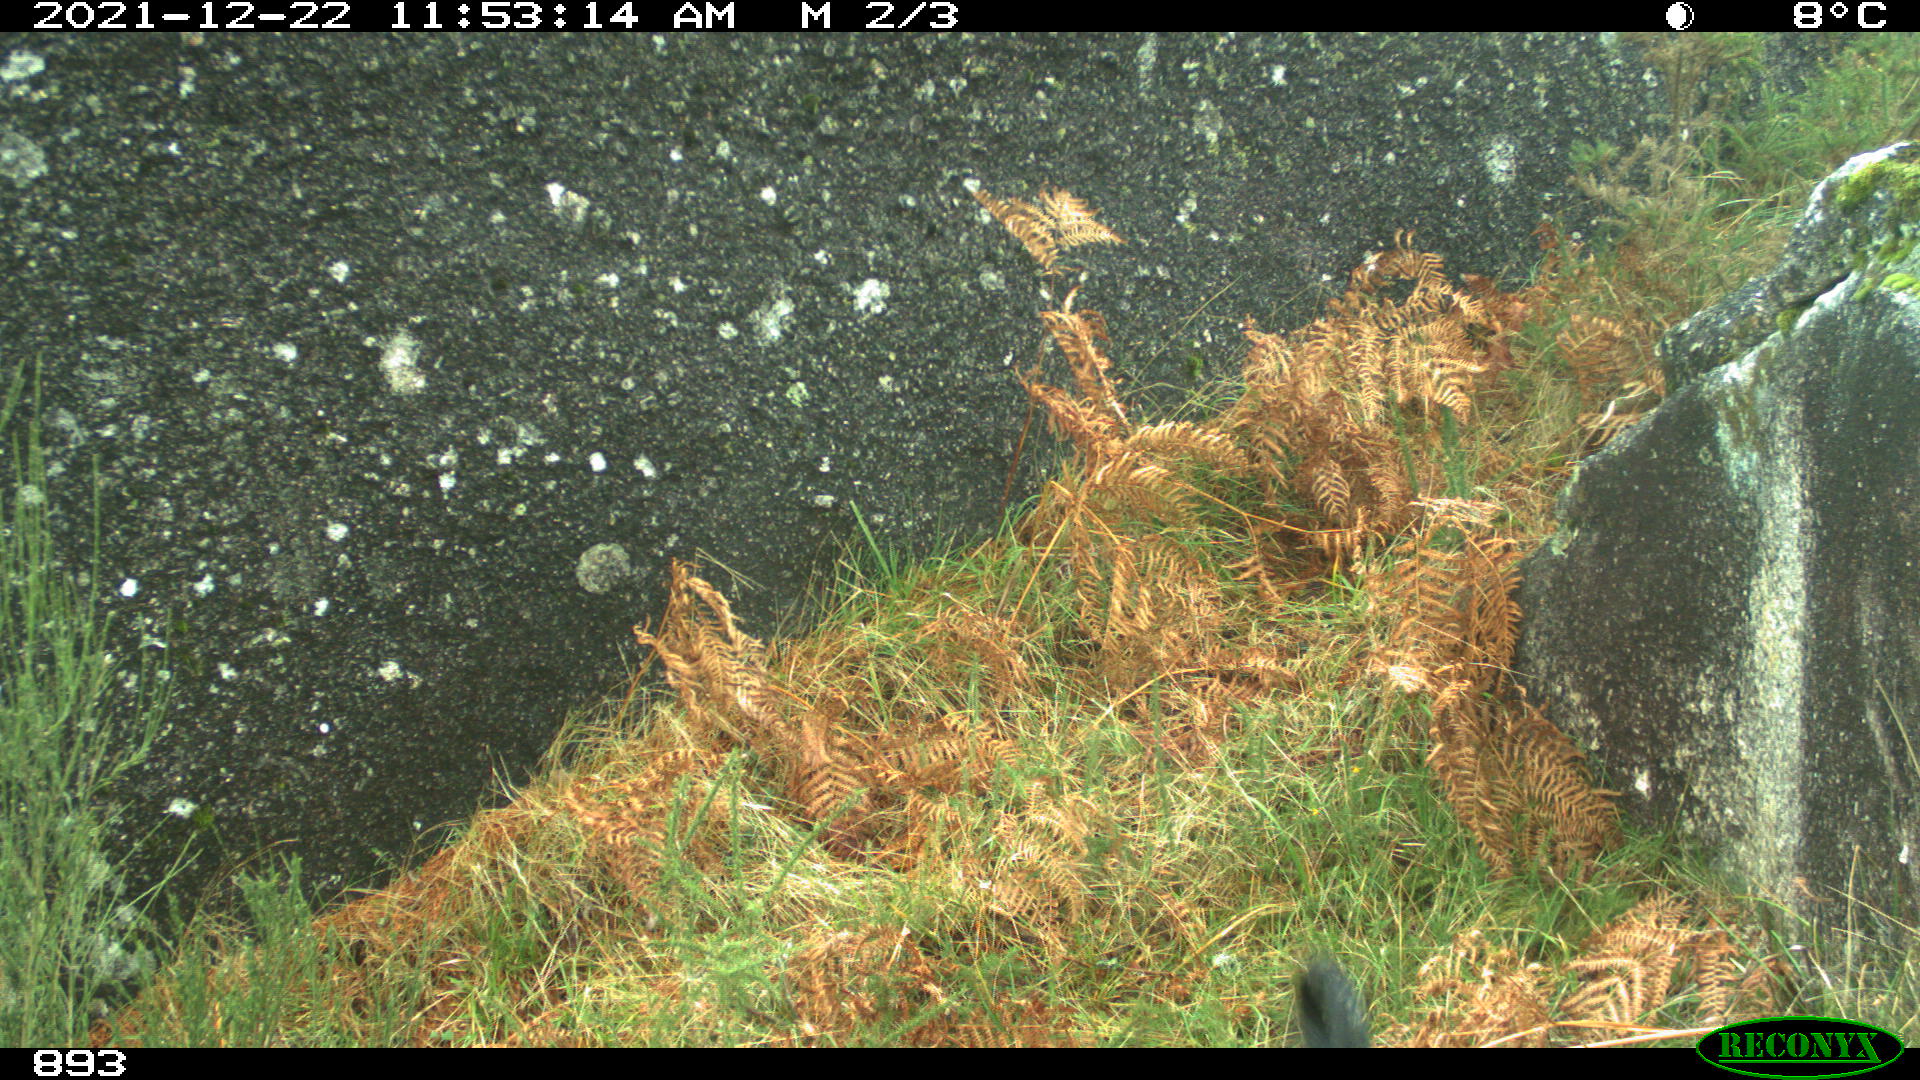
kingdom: Animalia
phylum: Chordata
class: Mammalia
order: Carnivora
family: Canidae
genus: Canis
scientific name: Canis lupus
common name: Gray wolf
